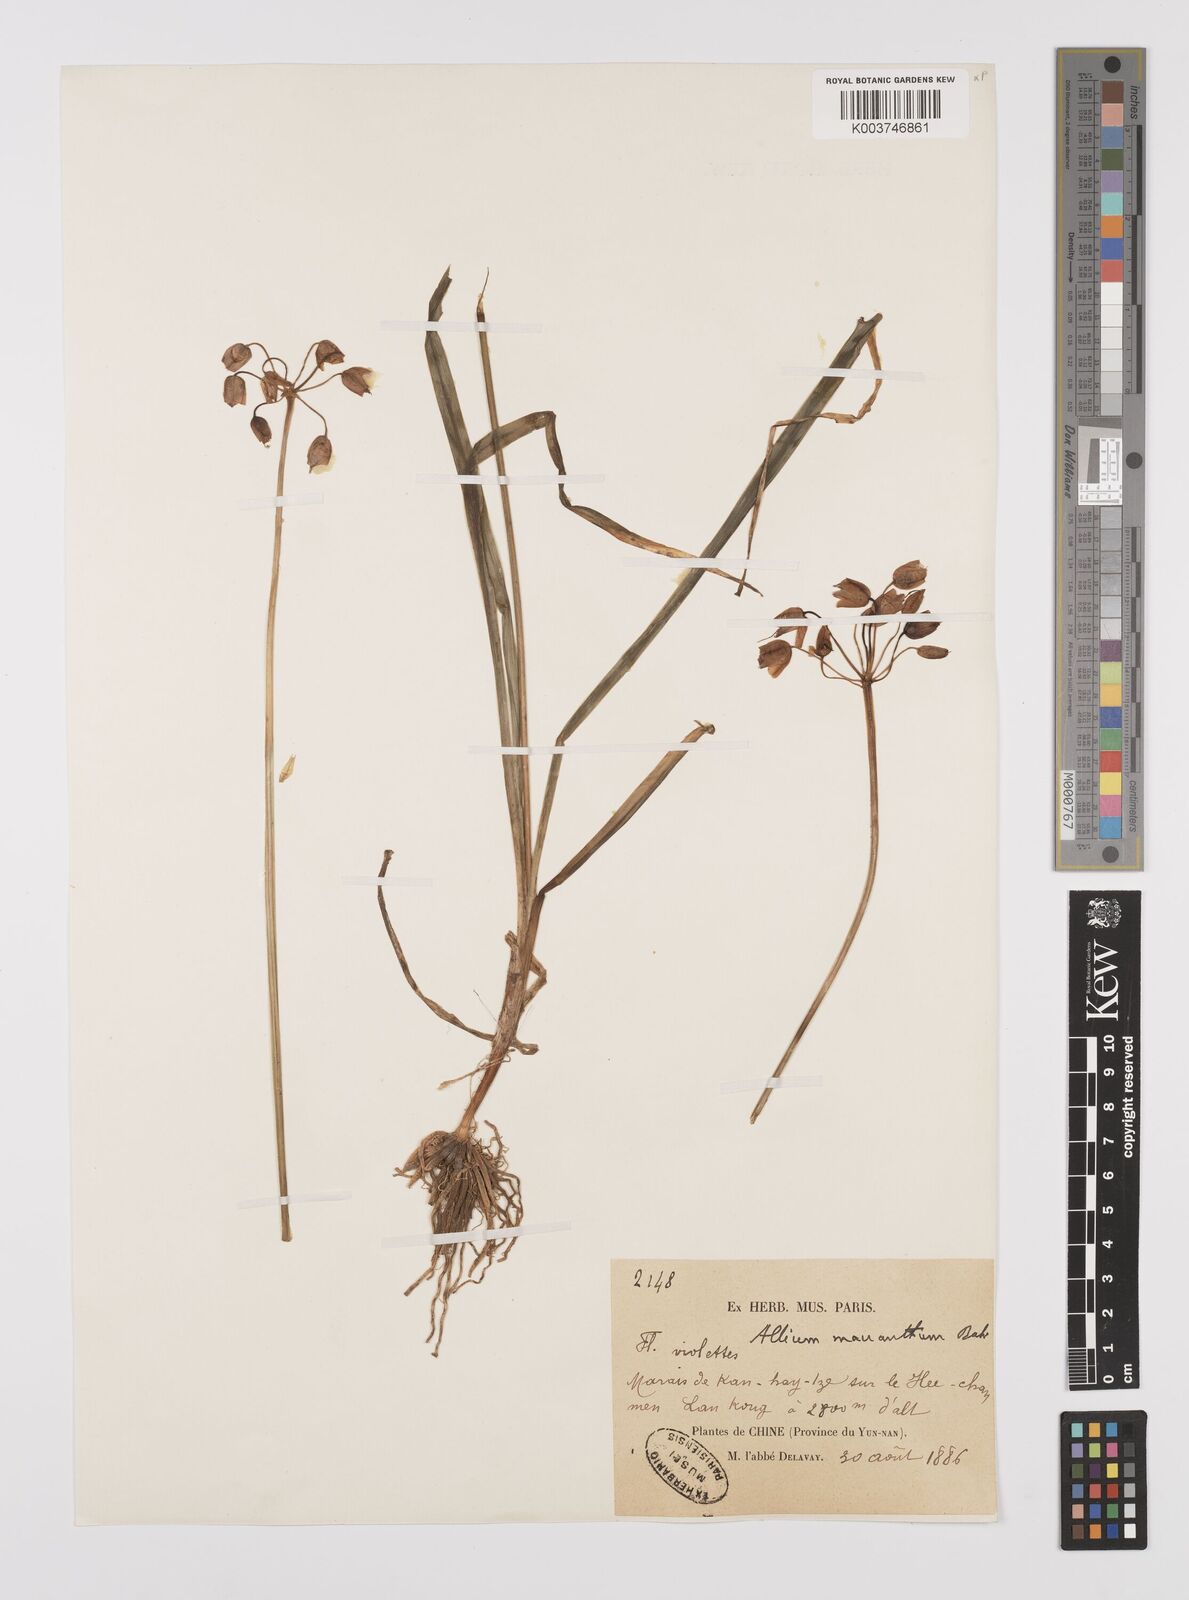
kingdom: Plantae
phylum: Tracheophyta
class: Liliopsida
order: Asparagales
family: Amaryllidaceae
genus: Allium
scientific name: Allium macranthum
